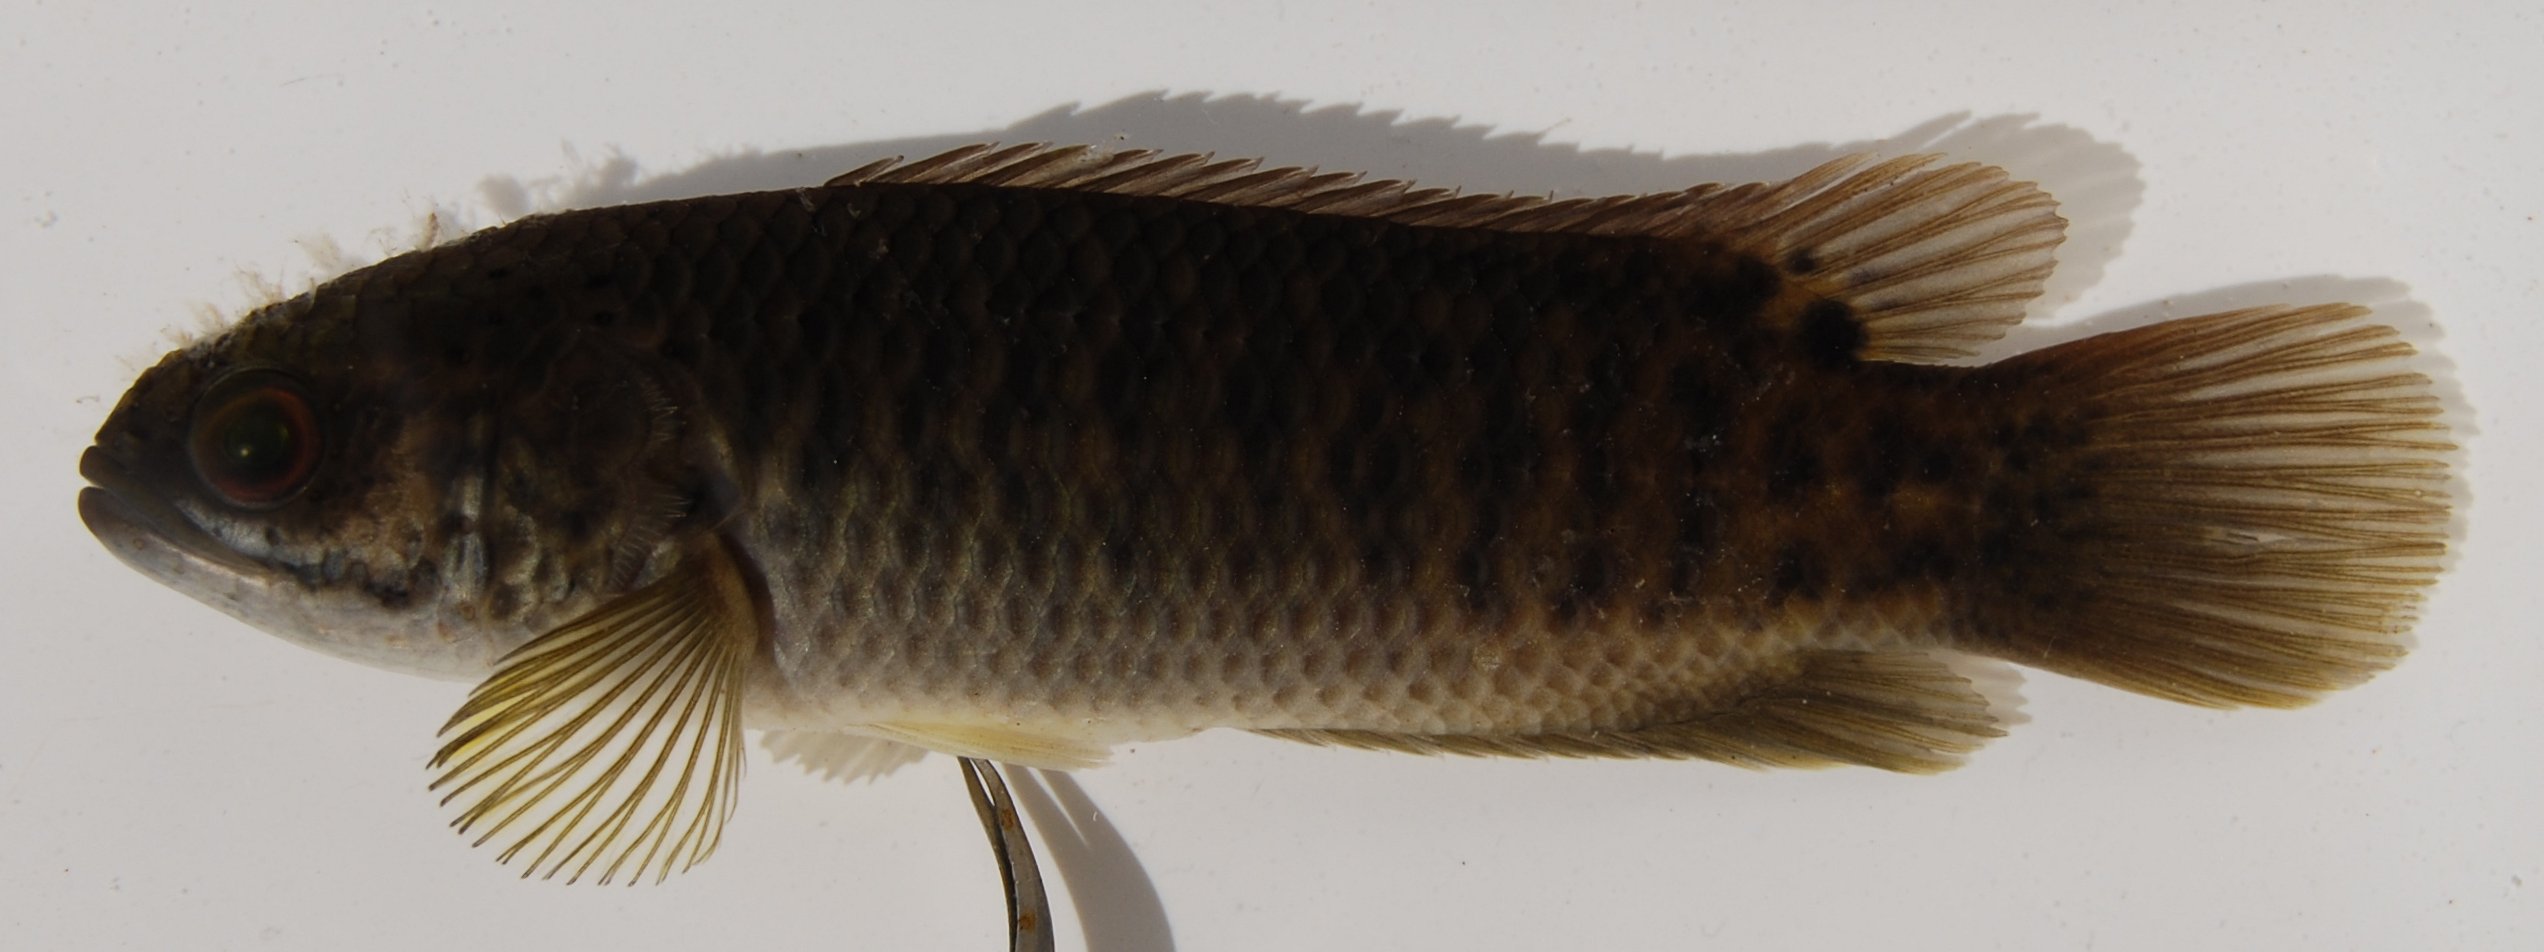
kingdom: Animalia
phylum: Chordata
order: Perciformes
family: Anabantidae
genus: Ctenopoma
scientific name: Ctenopoma multispine
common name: Manyspined climbing perch
